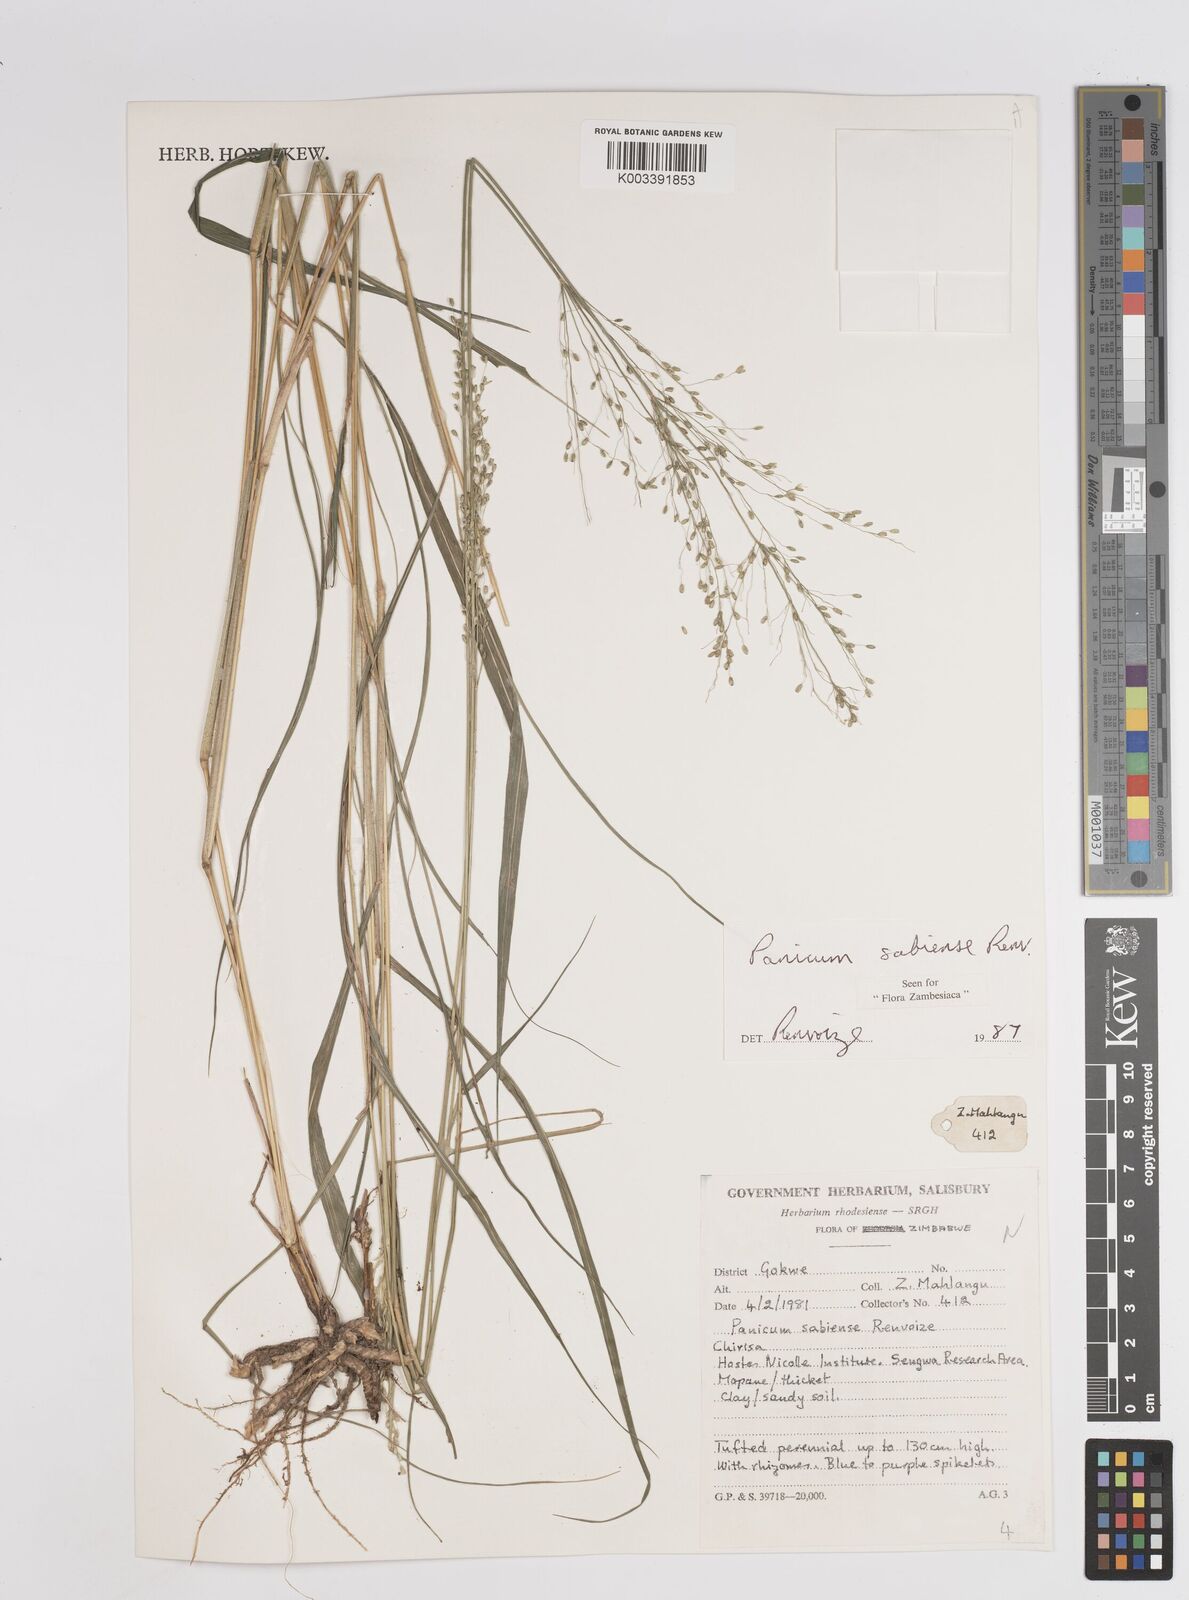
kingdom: Plantae
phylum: Tracheophyta
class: Liliopsida
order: Poales
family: Poaceae
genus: Panicum
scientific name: Panicum trichoides
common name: Tickle grass
